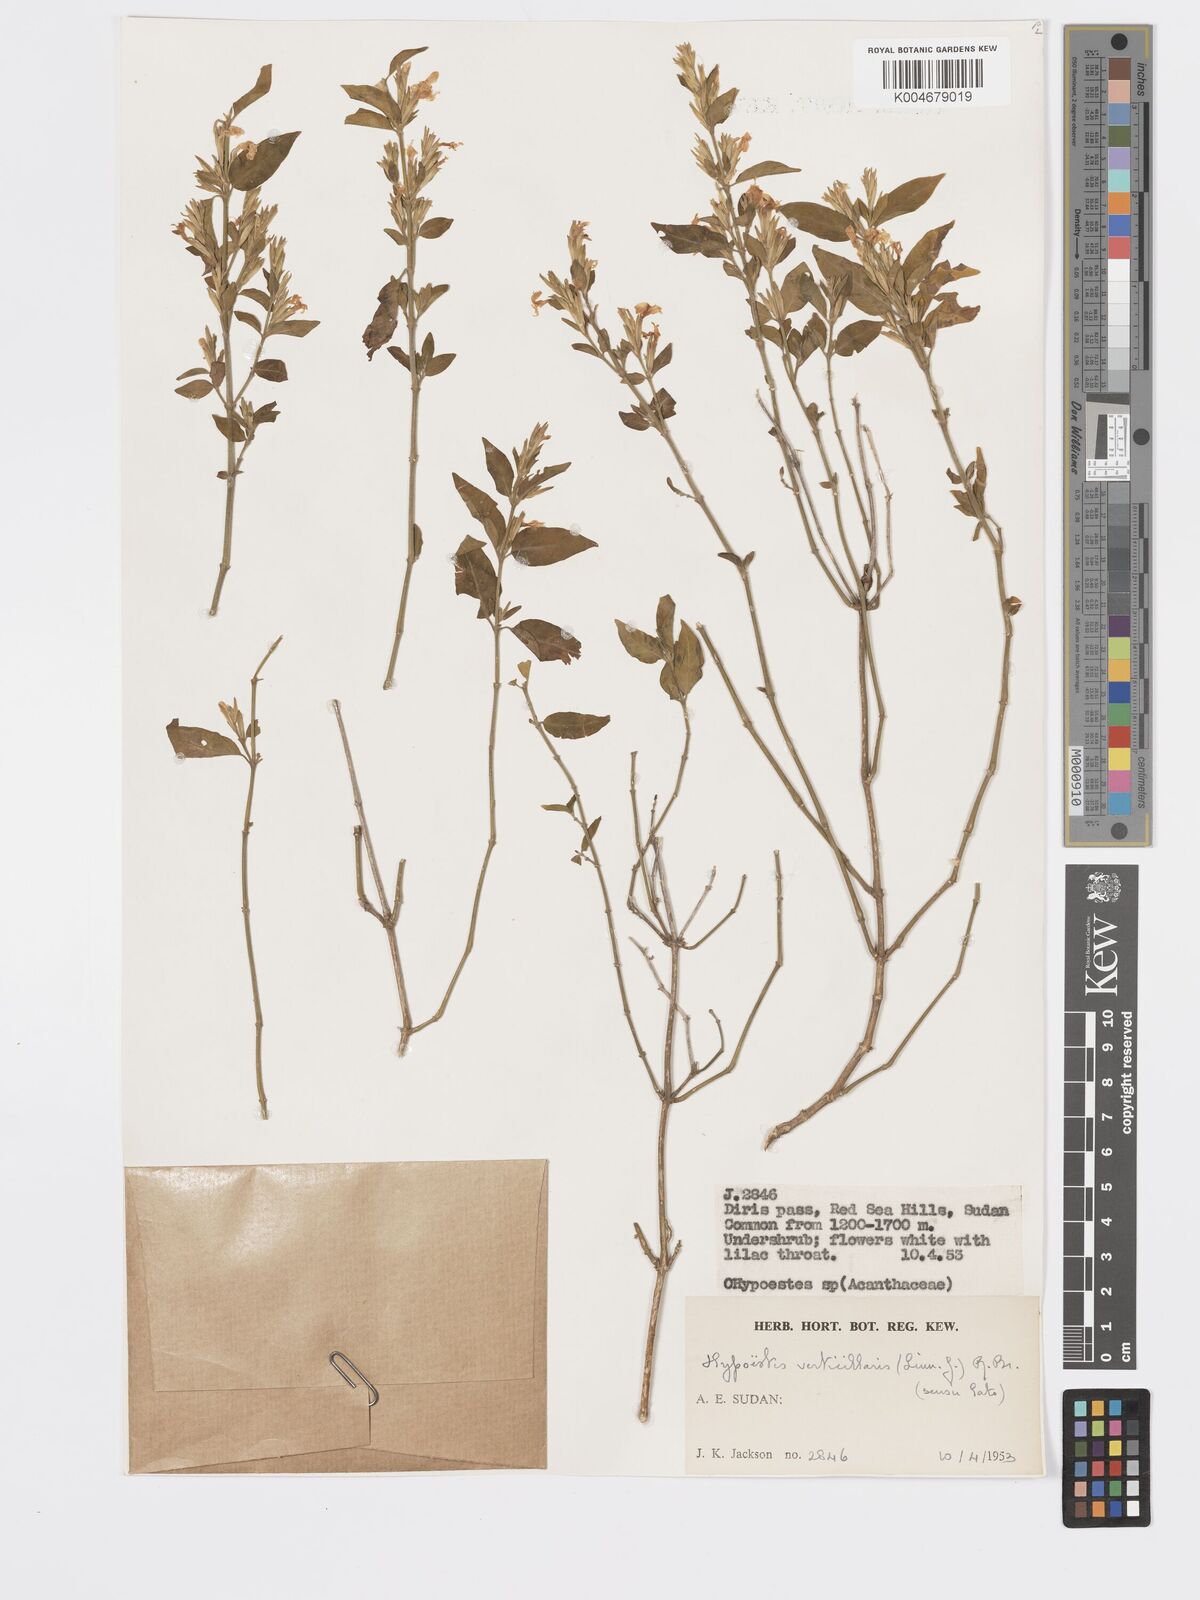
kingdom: Plantae
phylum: Tracheophyta
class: Magnoliopsida
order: Lamiales
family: Acanthaceae
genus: Hypoestes
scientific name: Hypoestes forskaolii
